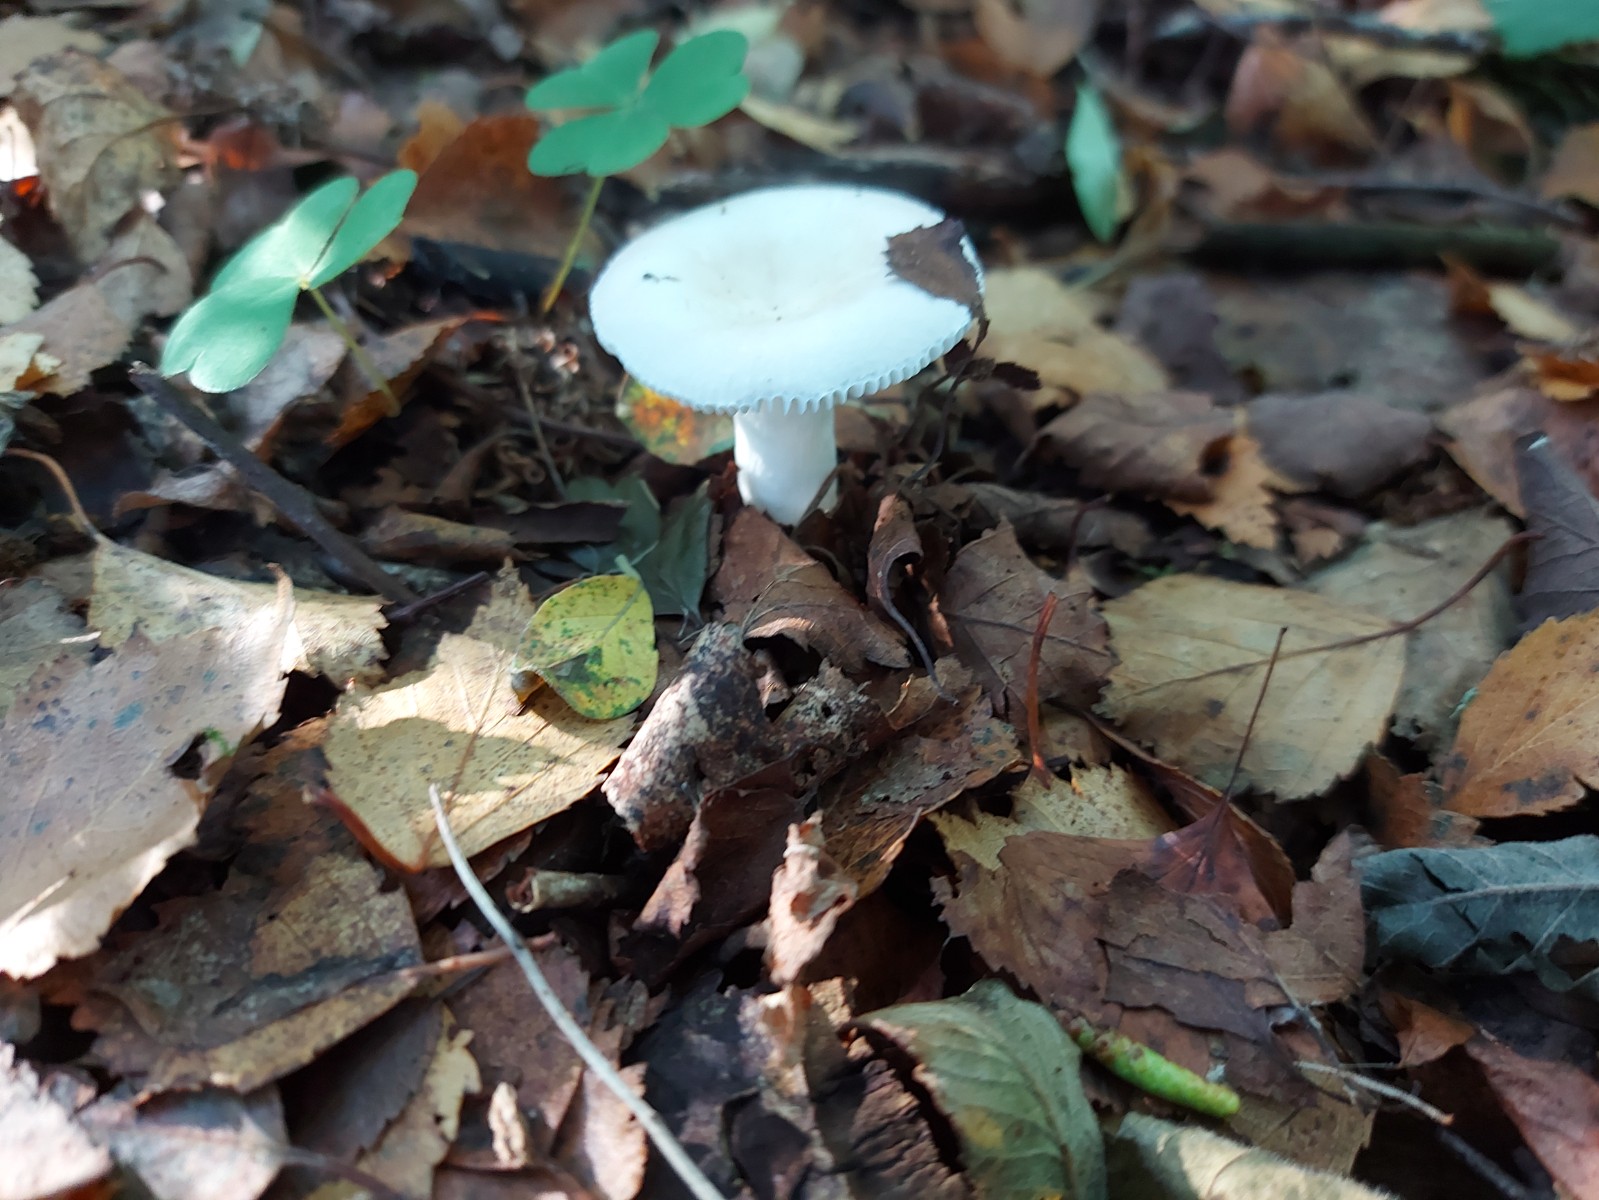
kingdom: Fungi
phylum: Basidiomycota
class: Agaricomycetes
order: Russulales
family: Russulaceae
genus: Russula
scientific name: Russula
